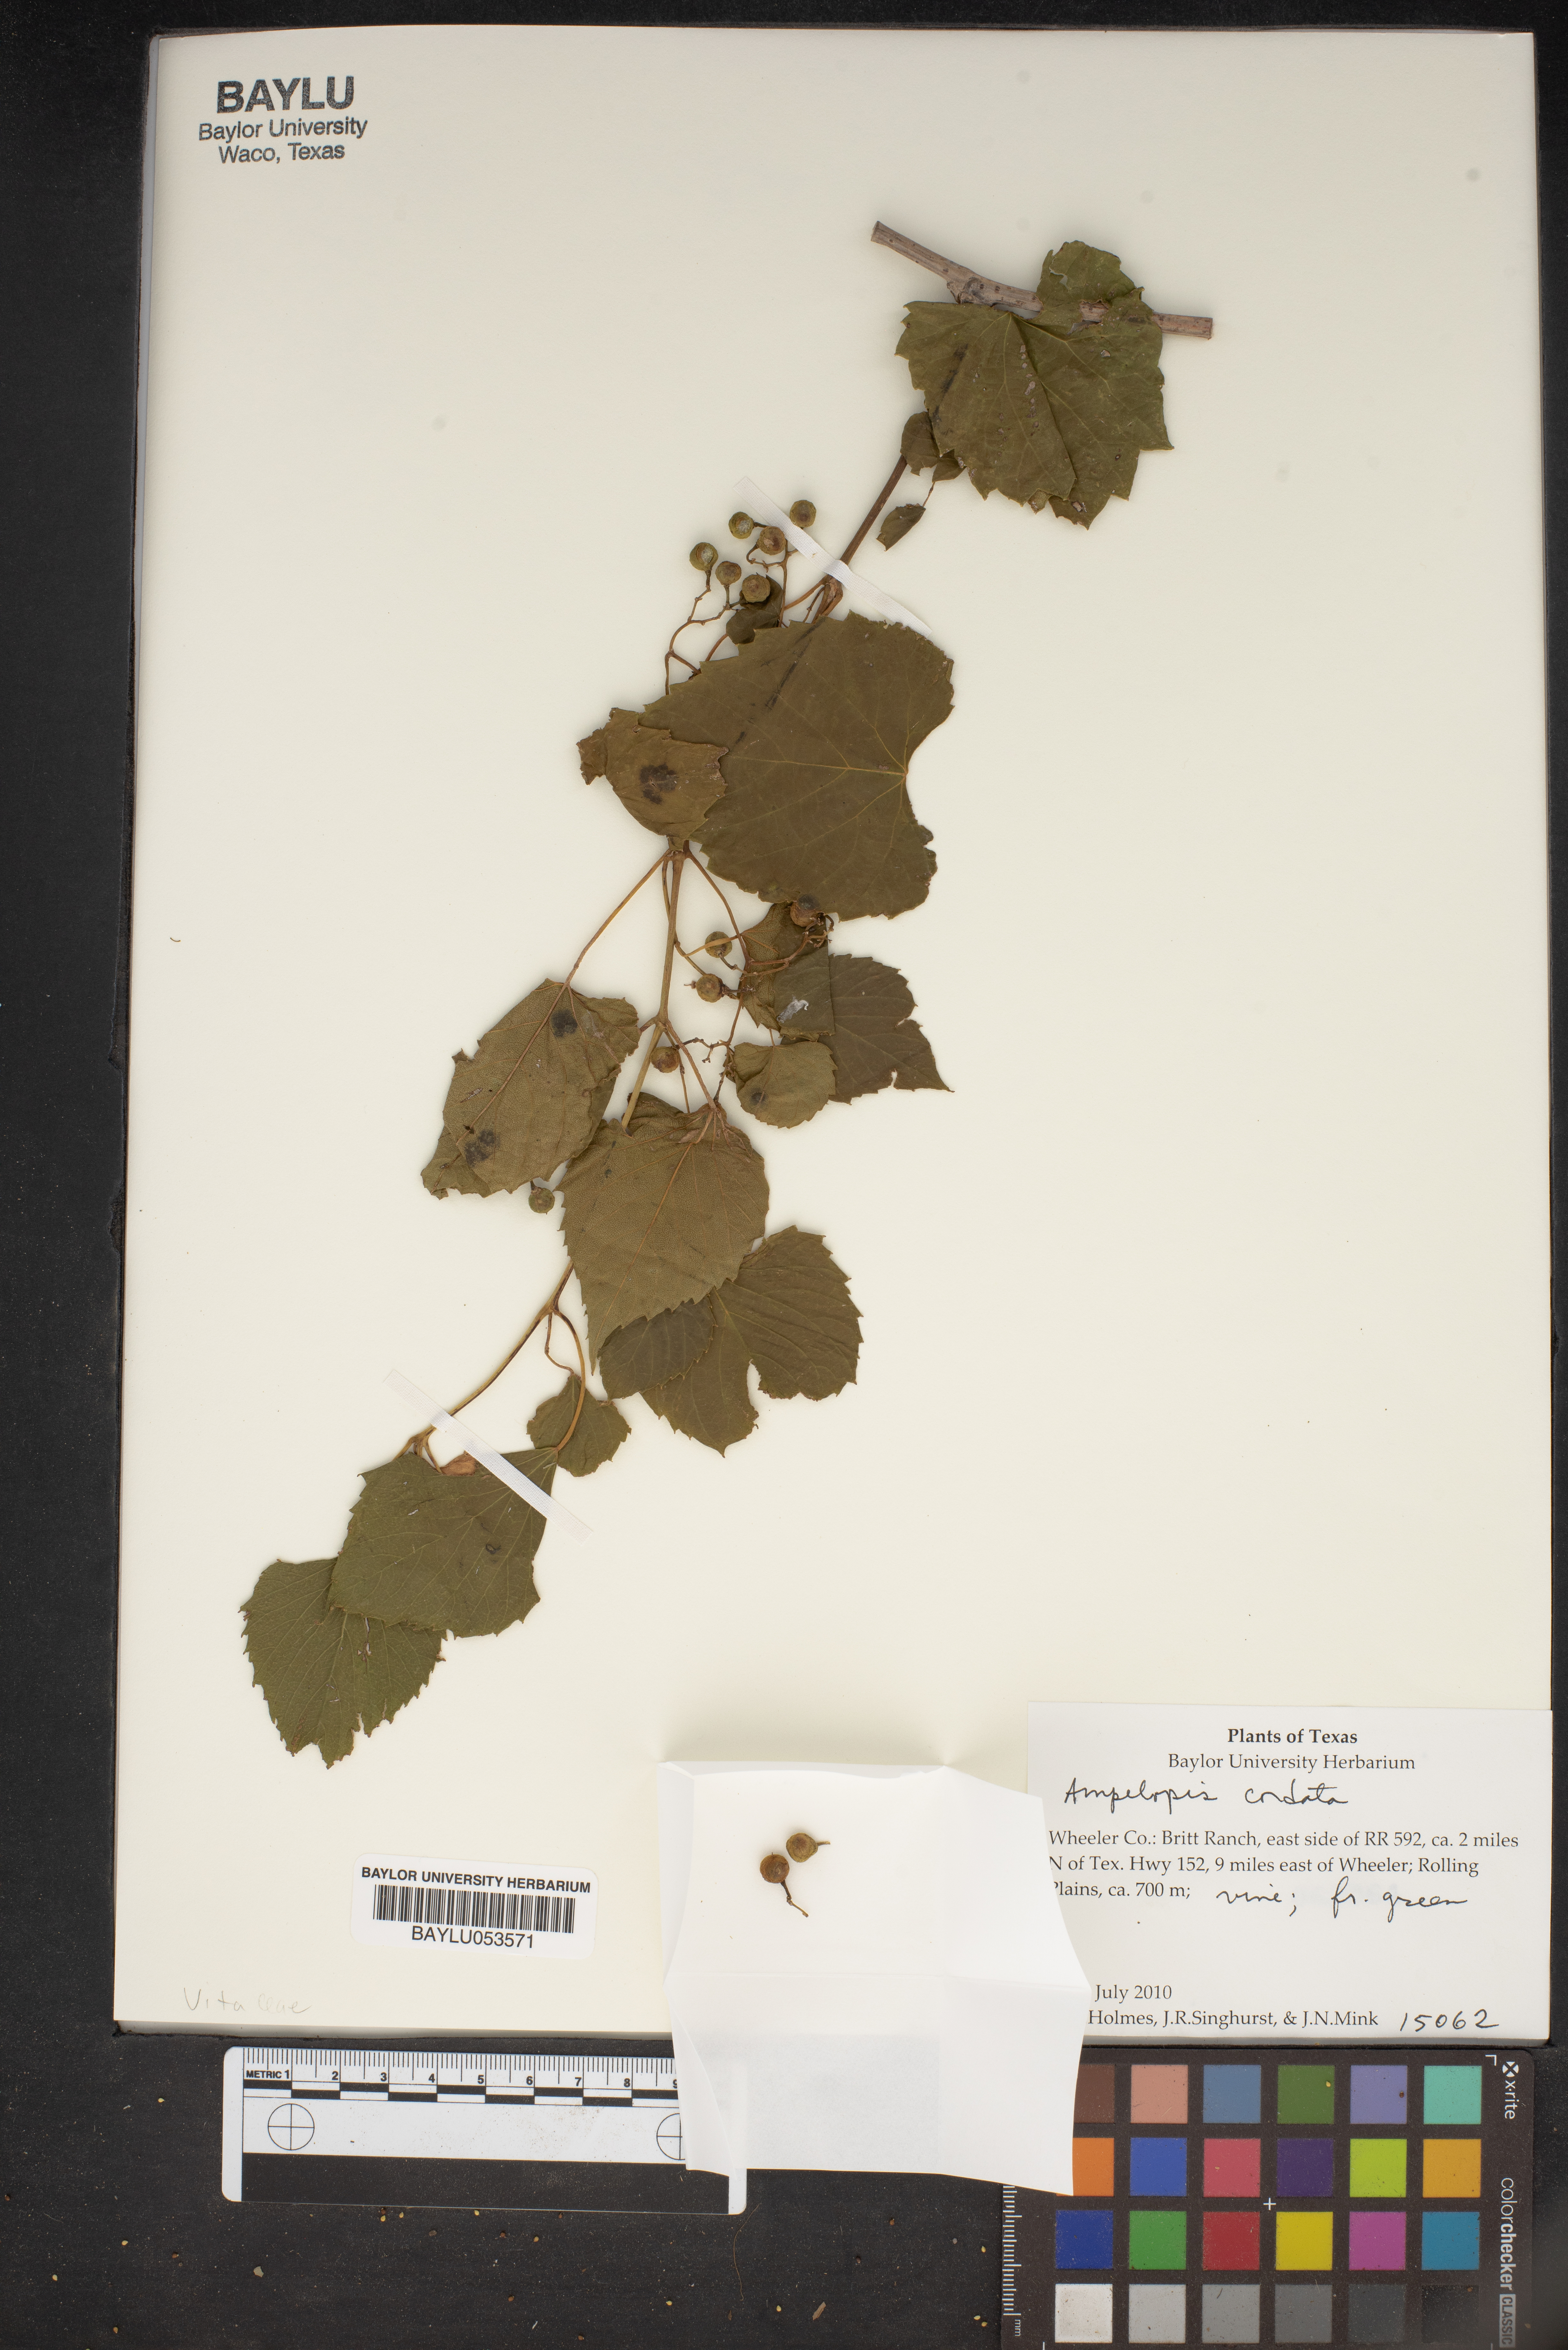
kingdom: Plantae
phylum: Tracheophyta
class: Magnoliopsida
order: Vitales
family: Vitaceae
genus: Ampelopsis
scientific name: Ampelopsis cordata
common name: Heart-leaf ampelopsis
